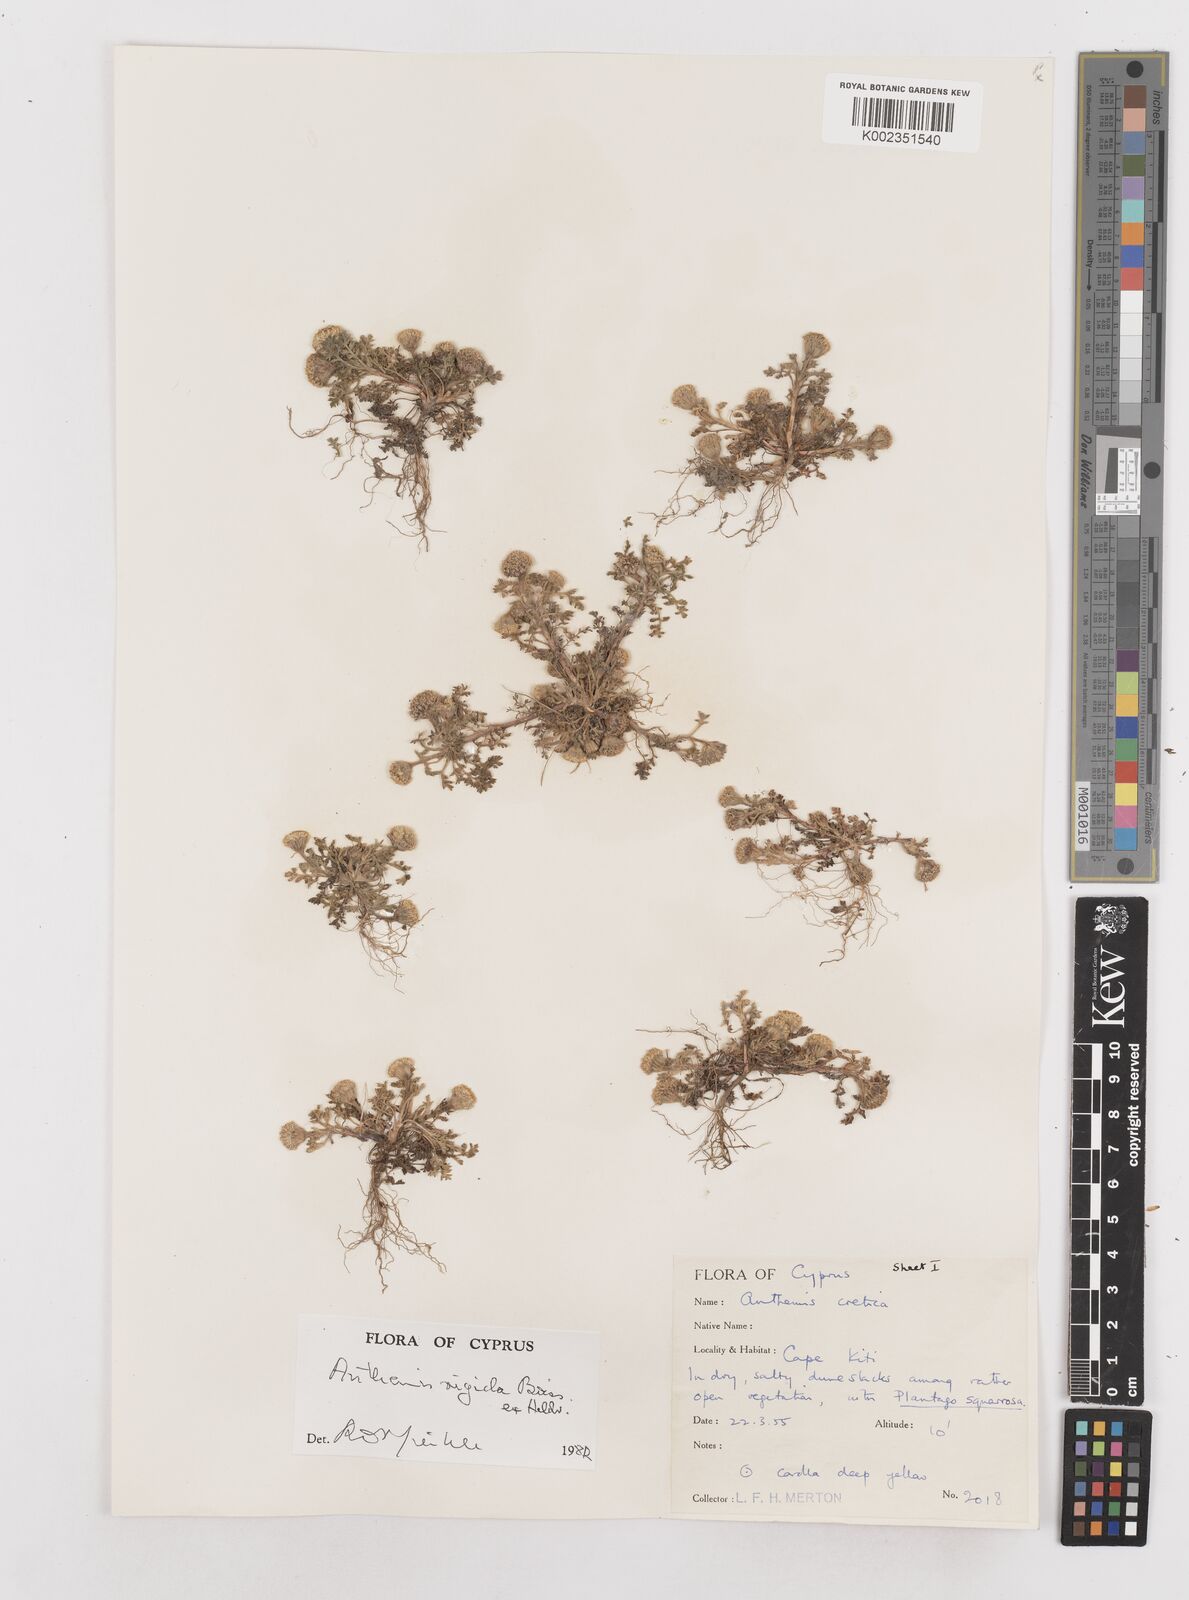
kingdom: Plantae
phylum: Tracheophyta
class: Magnoliopsida
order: Asterales
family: Asteraceae
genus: Anthemis
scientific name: Anthemis rigida
